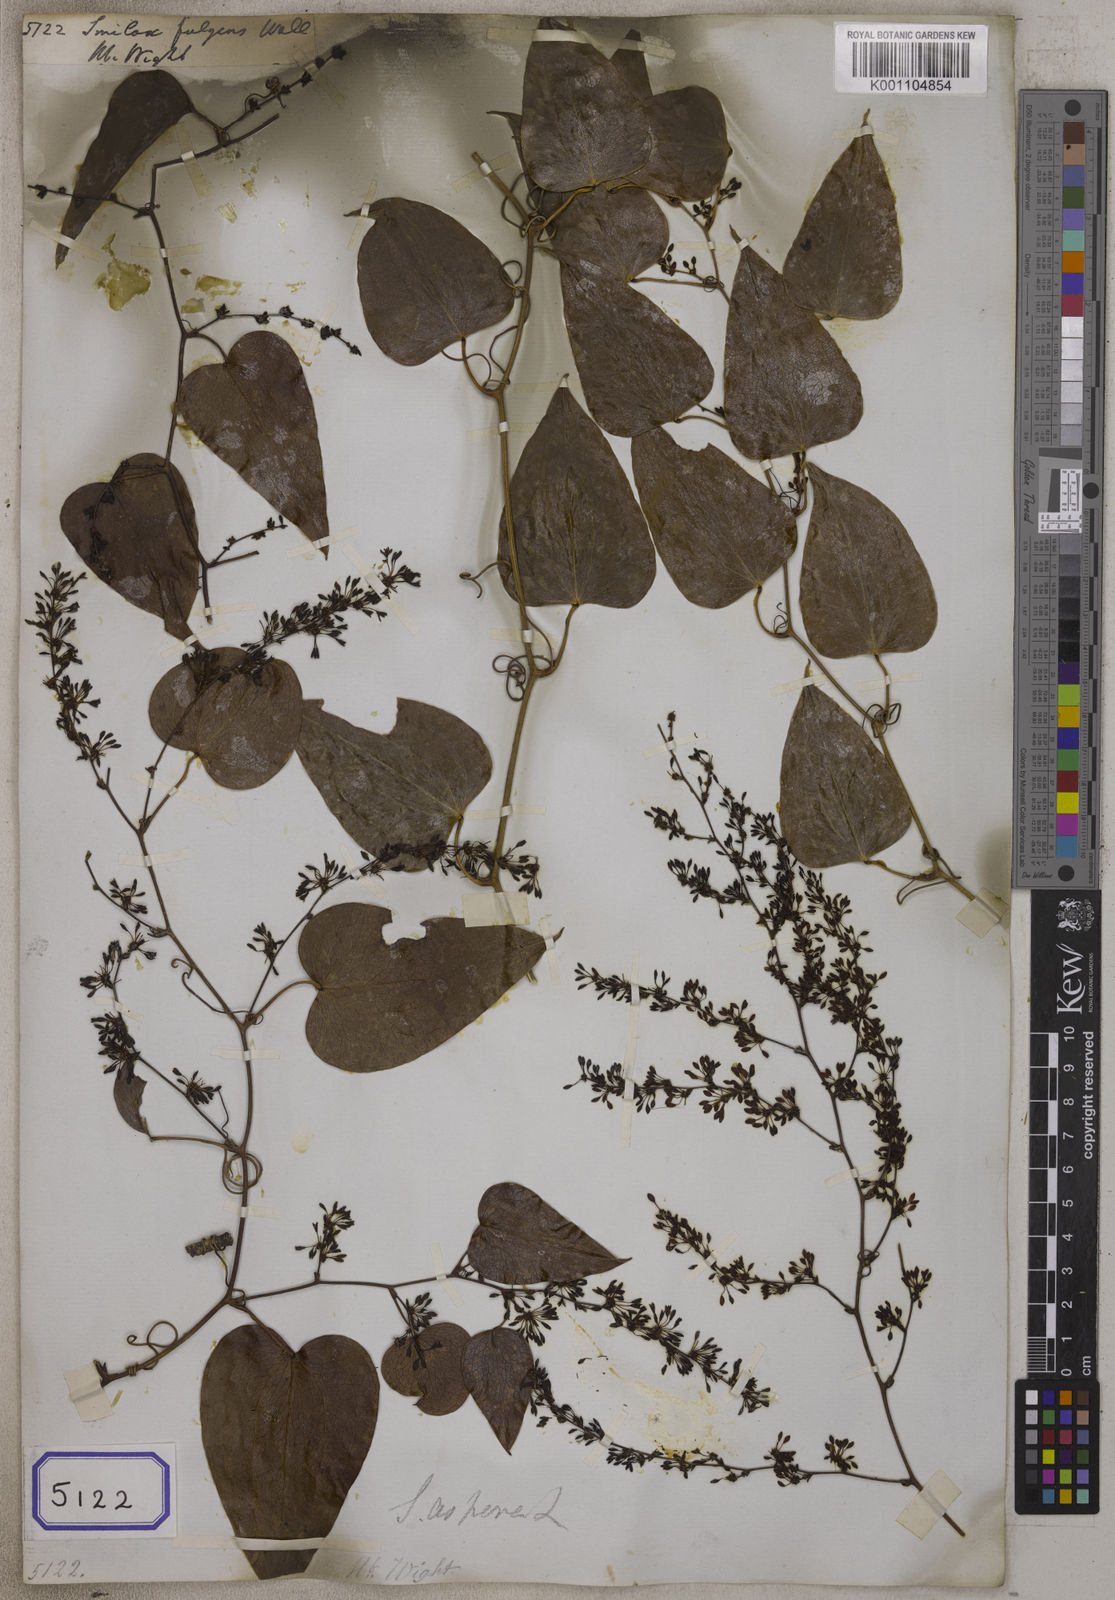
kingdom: Plantae
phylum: Tracheophyta
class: Liliopsida
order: Liliales
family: Smilacaceae
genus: Smilax
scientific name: Smilax
